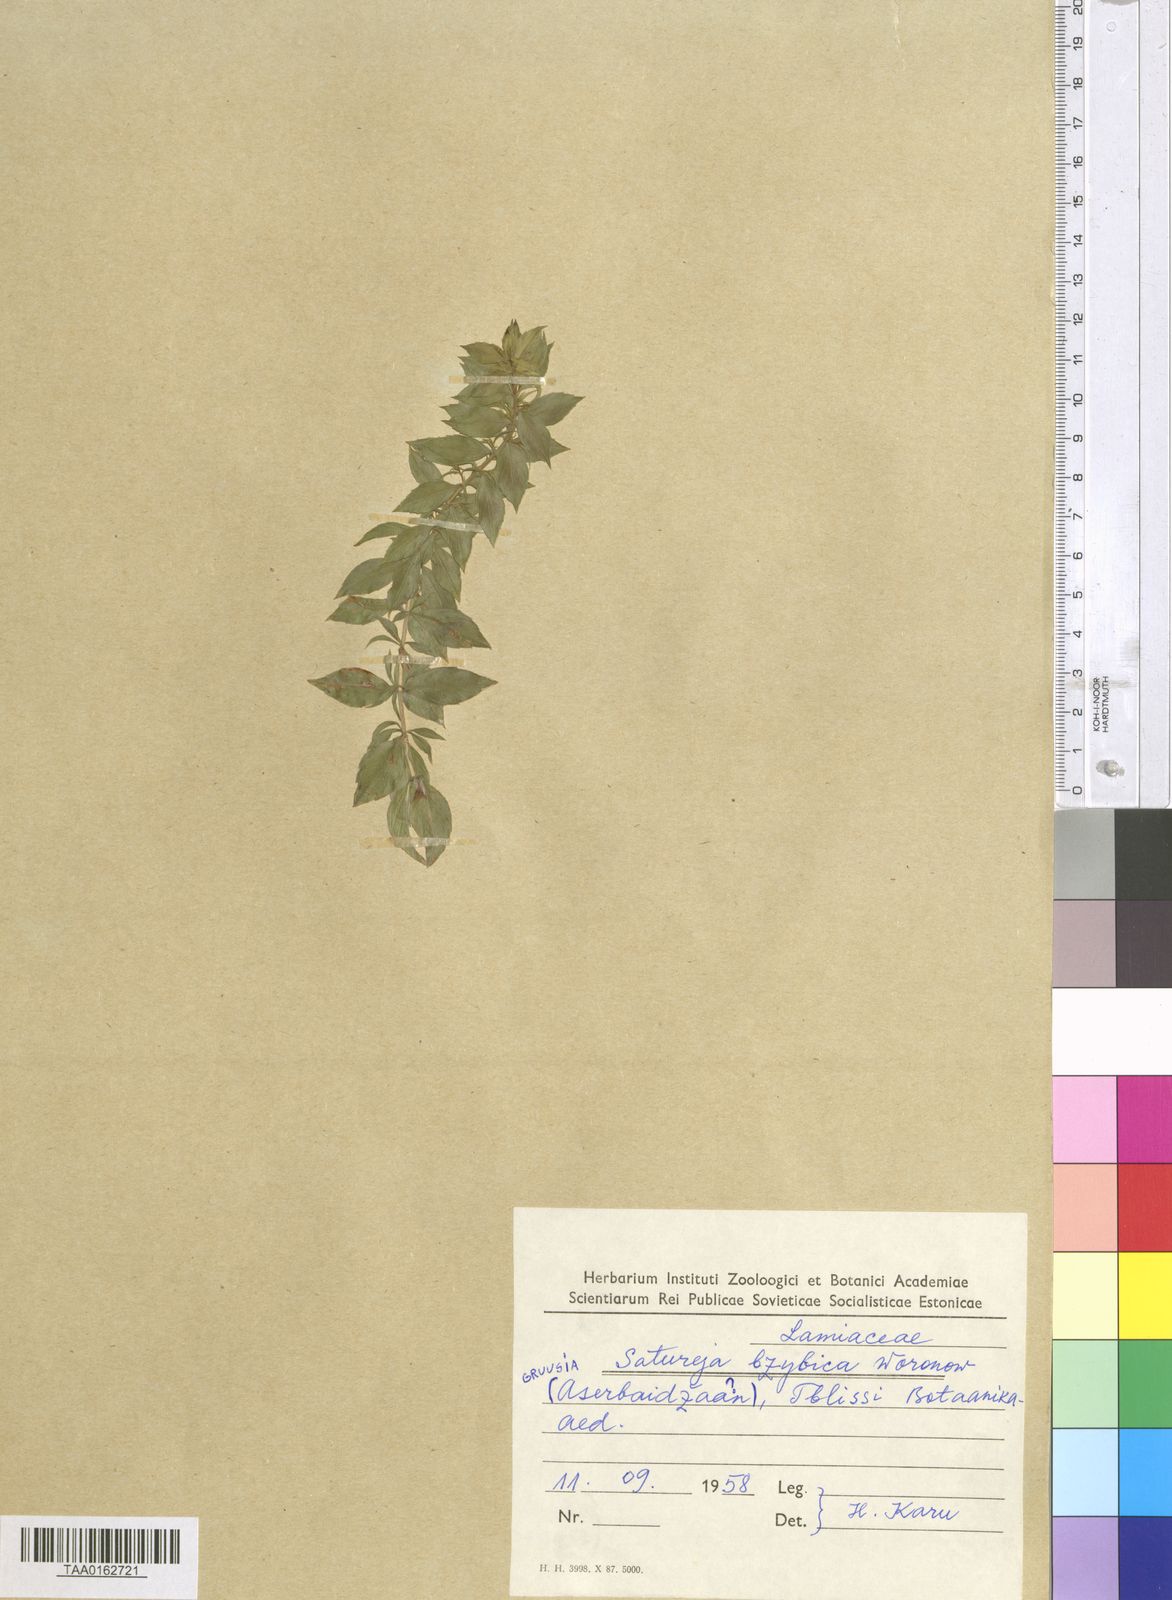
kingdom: Plantae
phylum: Tracheophyta
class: Magnoliopsida
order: Lamiales
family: Lamiaceae
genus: Satureja
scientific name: Satureja bzybica
